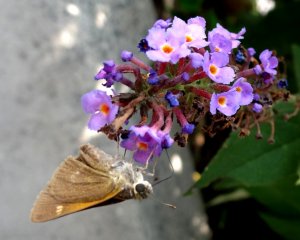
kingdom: Animalia
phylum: Arthropoda
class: Insecta
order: Lepidoptera
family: Hesperiidae
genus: Polites
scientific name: Polites themistocles
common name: Tawny-edged Skipper
